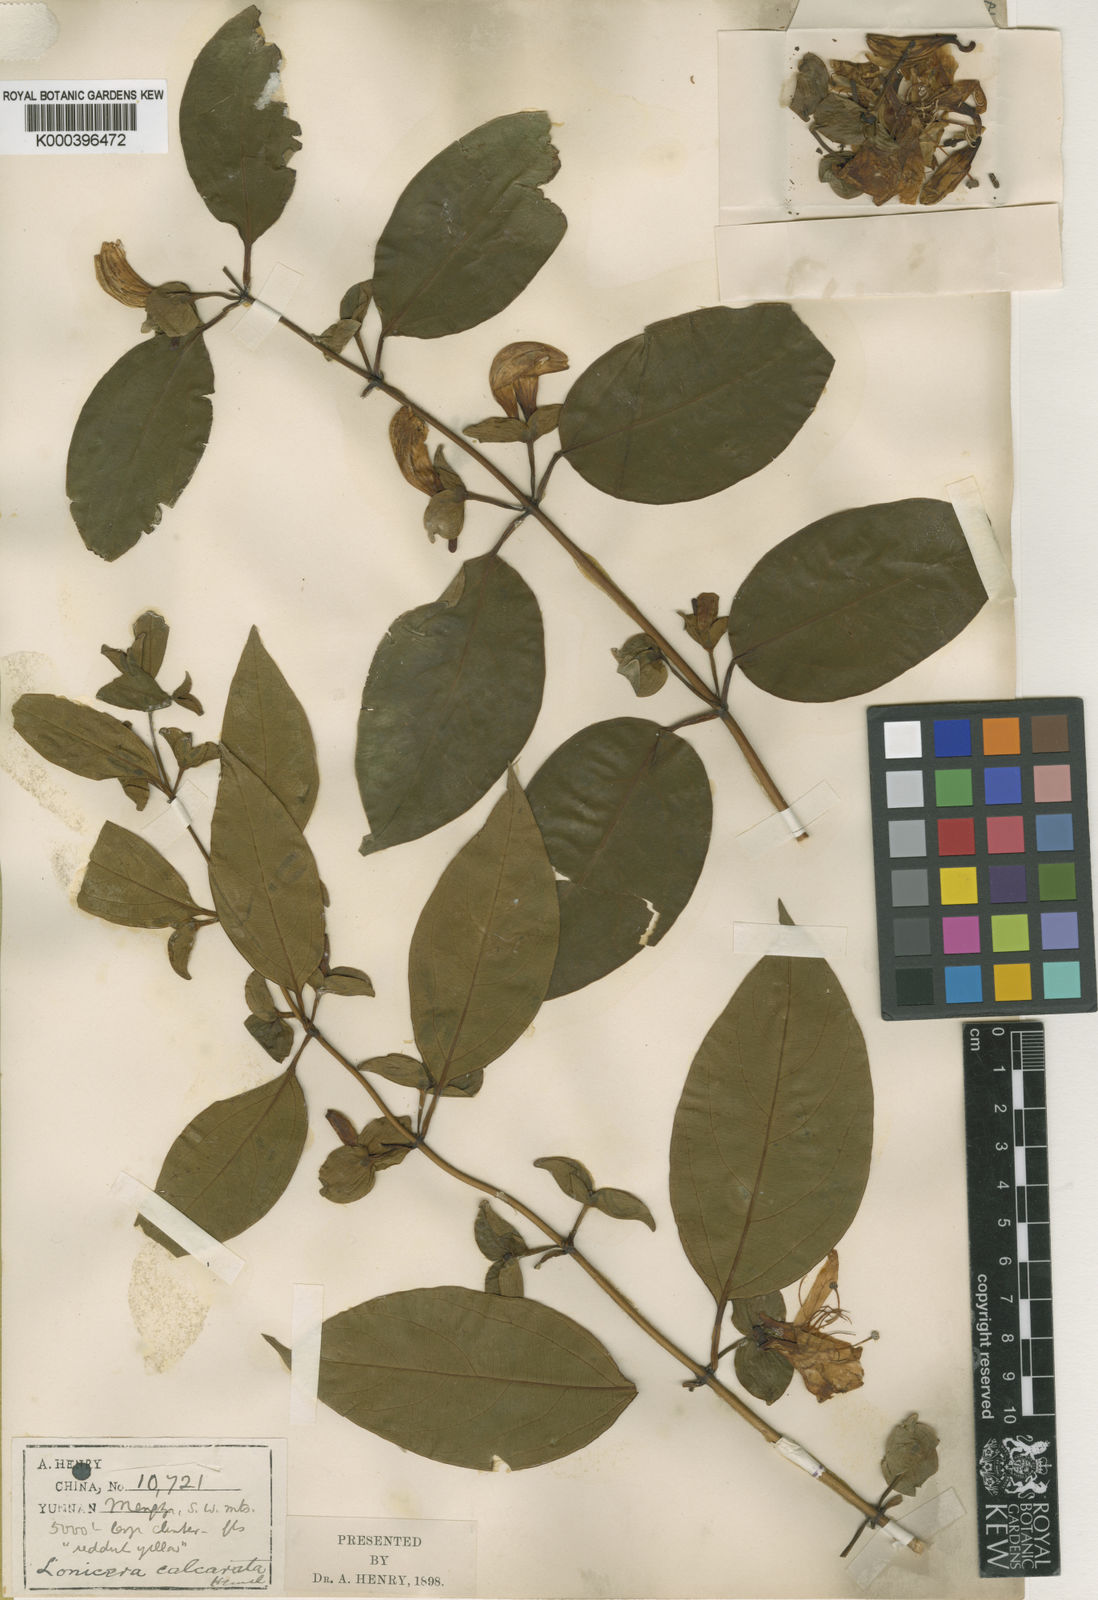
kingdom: Plantae
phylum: Tracheophyta
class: Magnoliopsida
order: Dipsacales
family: Caprifoliaceae
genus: Lonicera
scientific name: Lonicera calcarata
